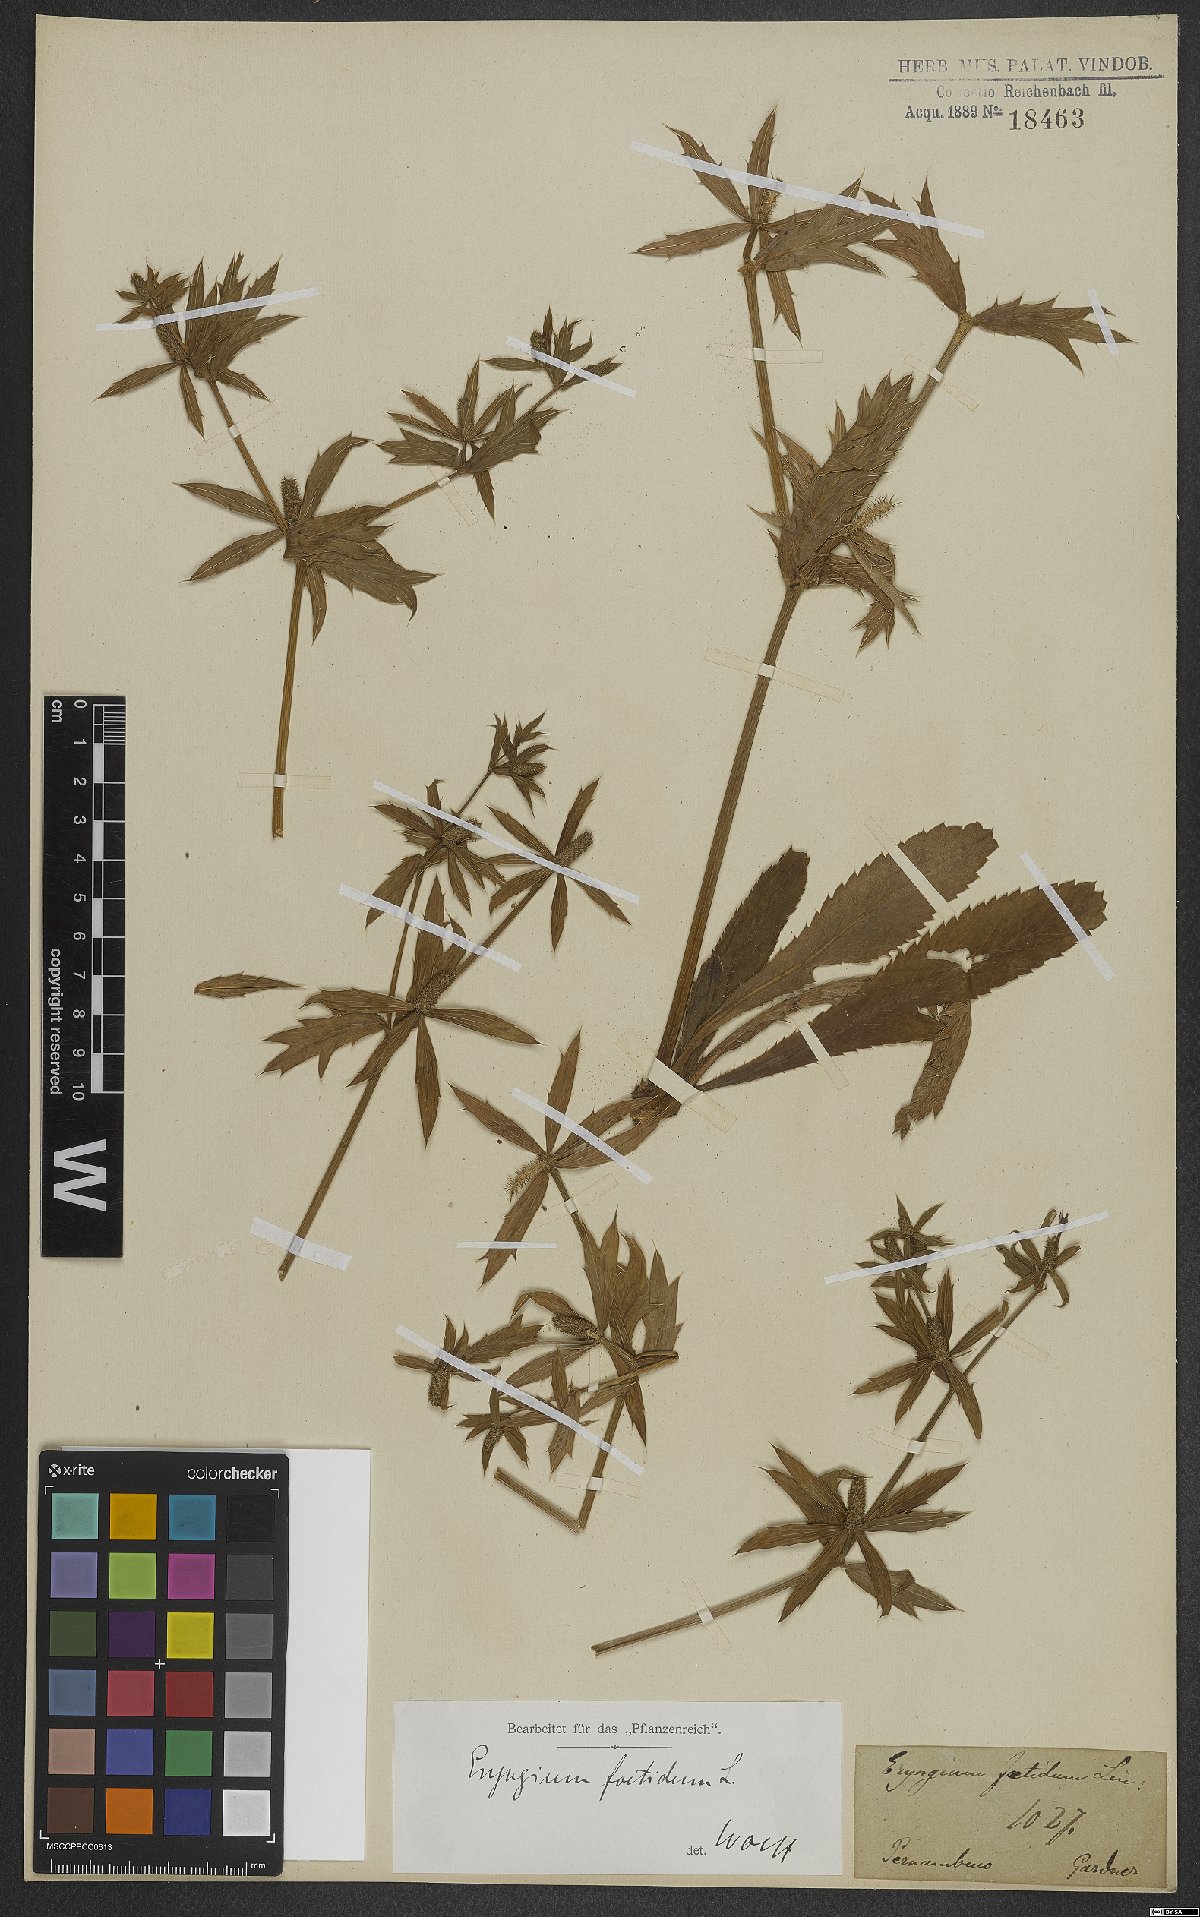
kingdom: Plantae
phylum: Tracheophyta
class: Magnoliopsida
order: Apiales
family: Apiaceae
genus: Eryngium
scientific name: Eryngium foetidum
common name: Fitweed
